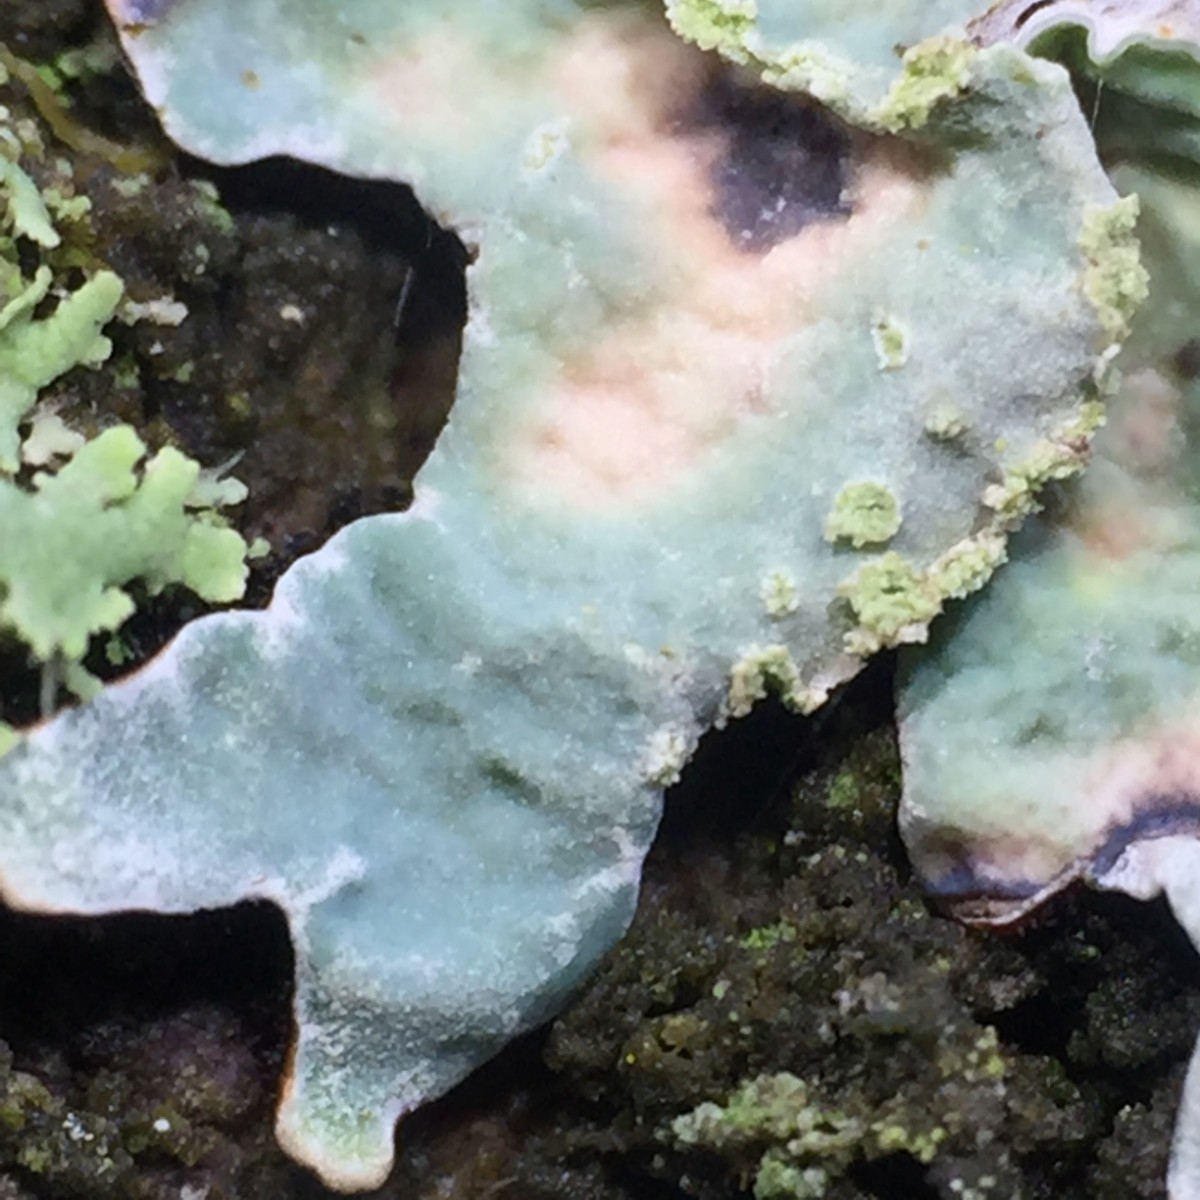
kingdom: Fungi
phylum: Ascomycota
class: Lecanoromycetes
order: Lecanorales
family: Parmeliaceae
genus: Parmelia
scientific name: Parmelia sulcata
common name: rynket skållav
